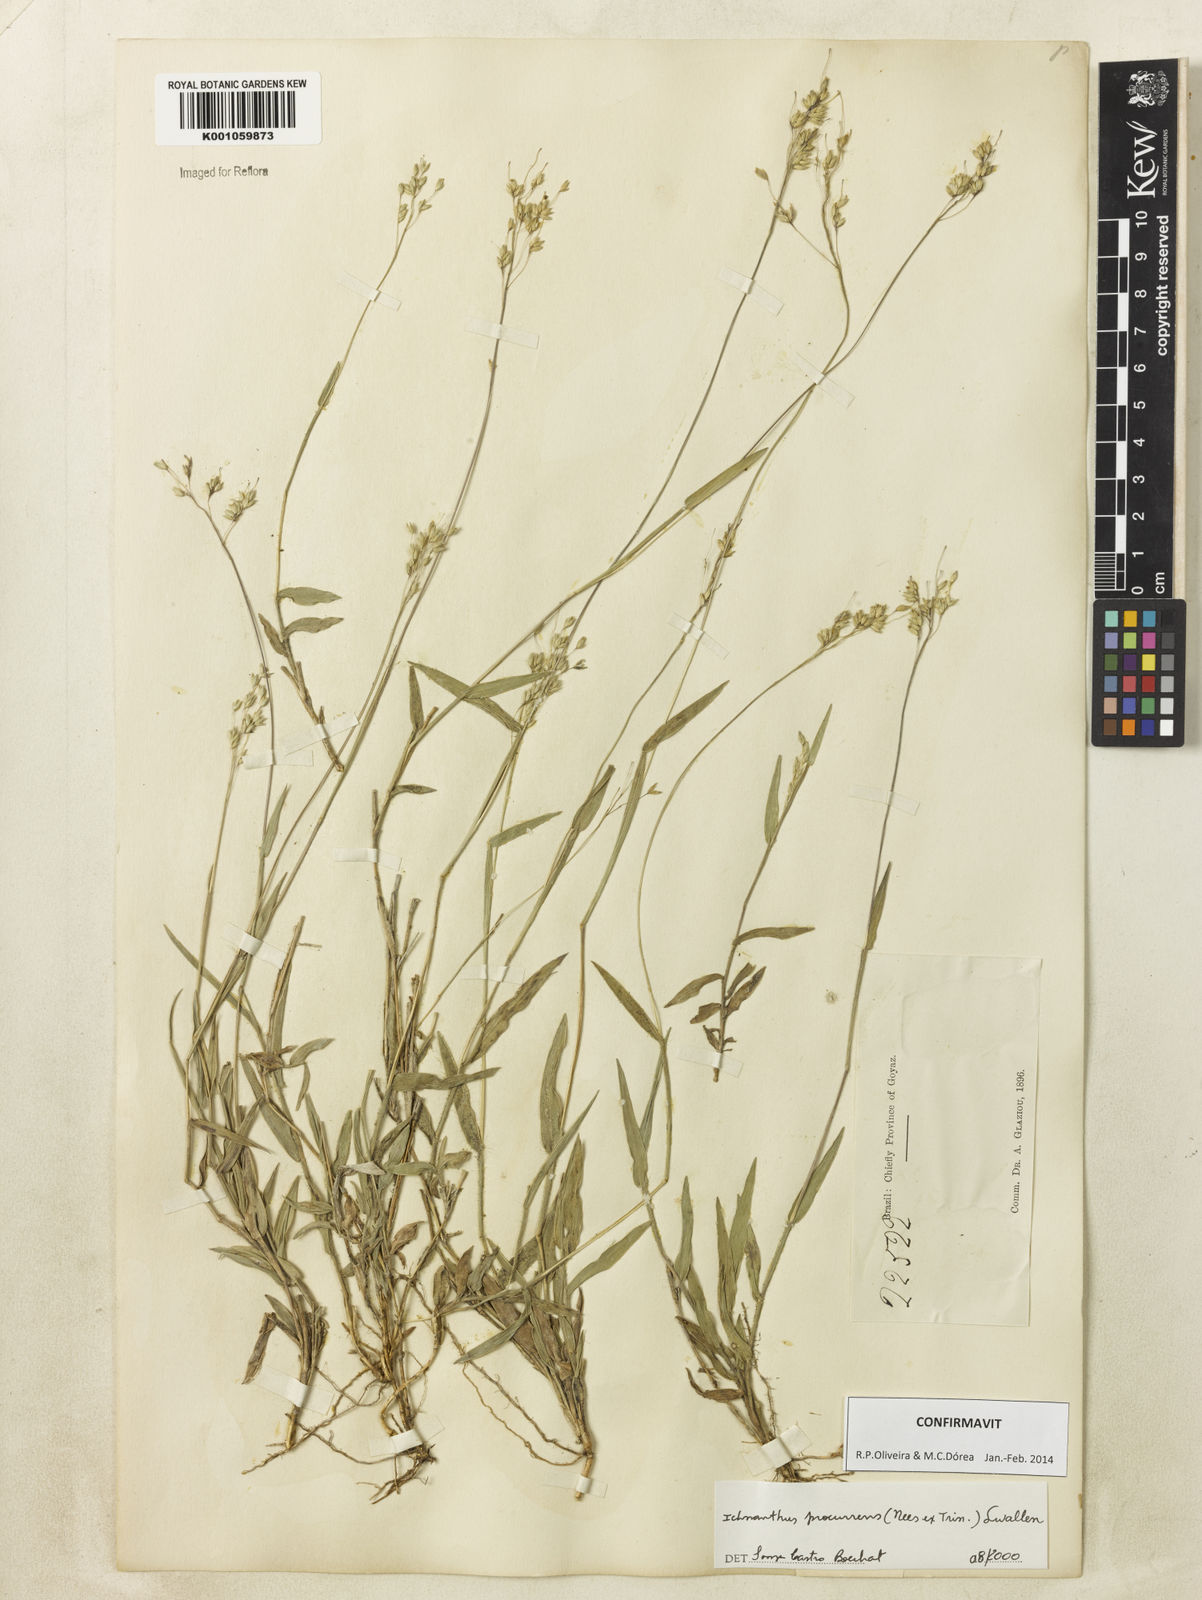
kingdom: Plantae
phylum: Tracheophyta
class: Liliopsida
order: Poales
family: Poaceae
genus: Oedochloa
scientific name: Oedochloa procurrens
